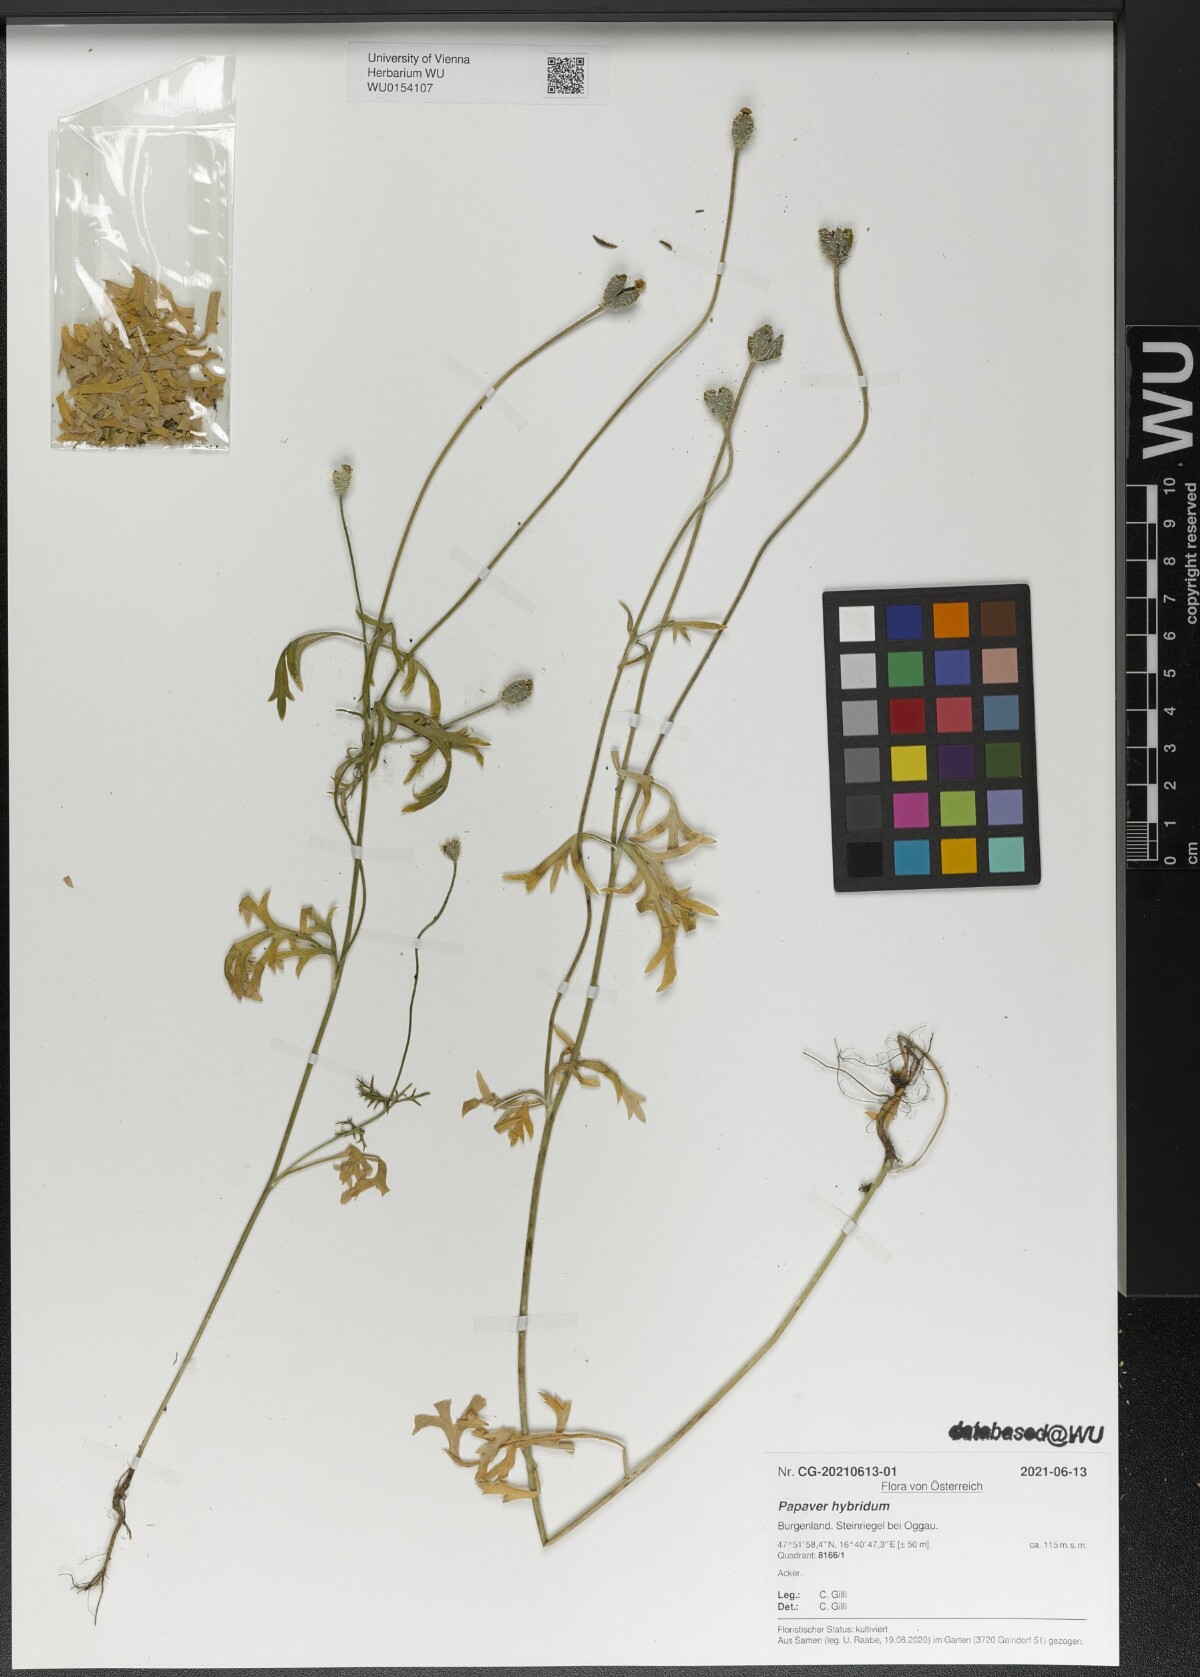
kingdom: Plantae
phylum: Tracheophyta
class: Magnoliopsida
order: Ranunculales
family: Papaveraceae
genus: Roemeria
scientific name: Roemeria hispida
